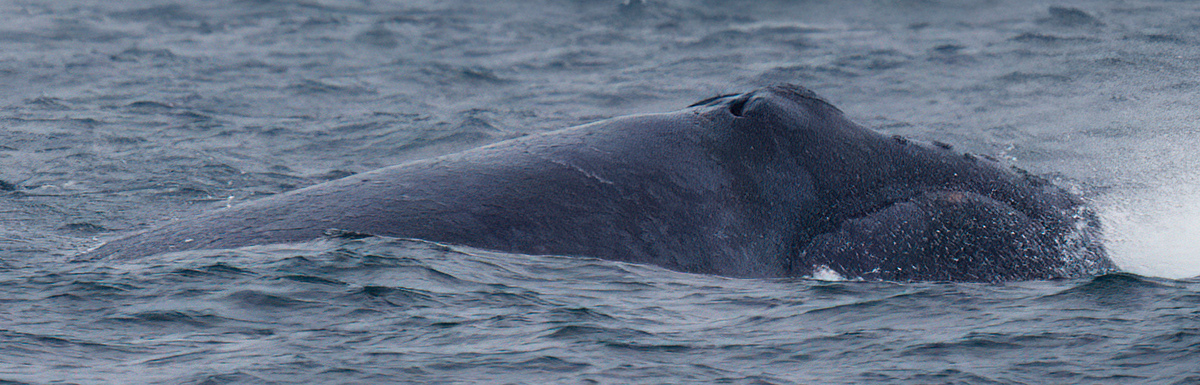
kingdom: Animalia
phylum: Chordata
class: Mammalia
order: Cetacea
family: Balaenidae
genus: Eubalaena
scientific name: Eubalaena japonica
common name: North Pacific Right Whale
